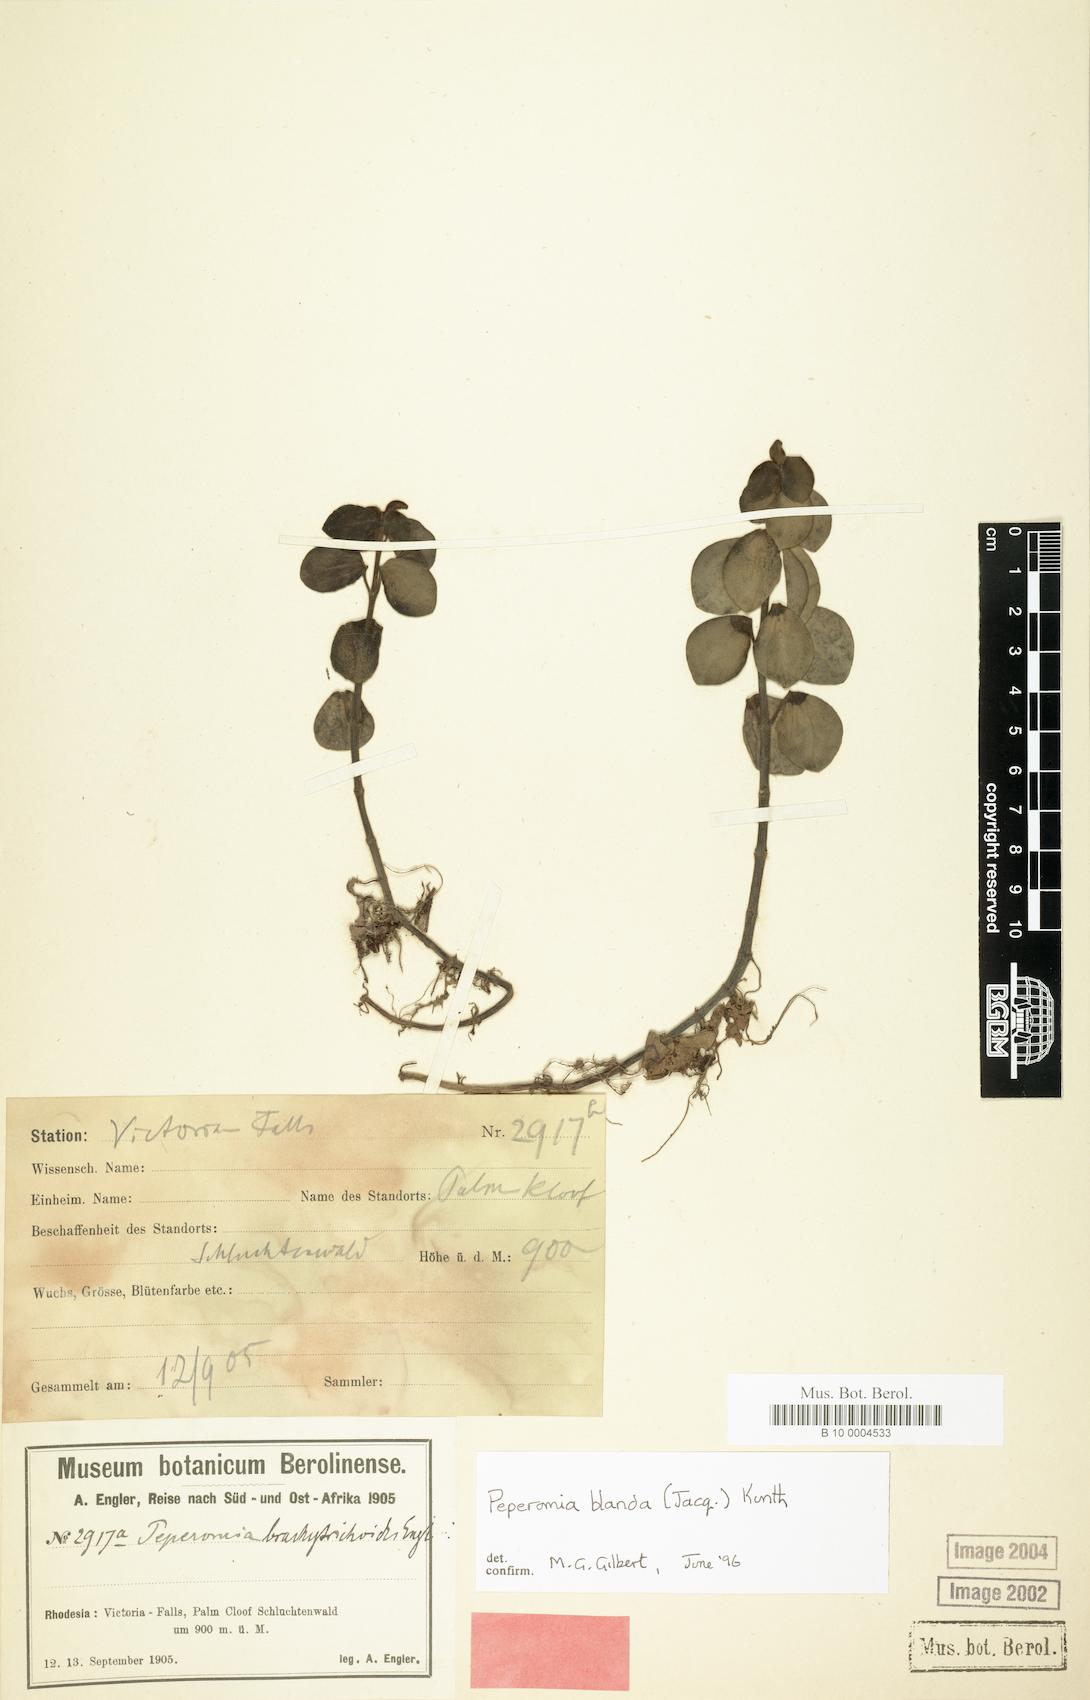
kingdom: Plantae
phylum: Tracheophyta
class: Magnoliopsida
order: Piperales
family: Piperaceae
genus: Peperomia
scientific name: Peperomia leptostachya
